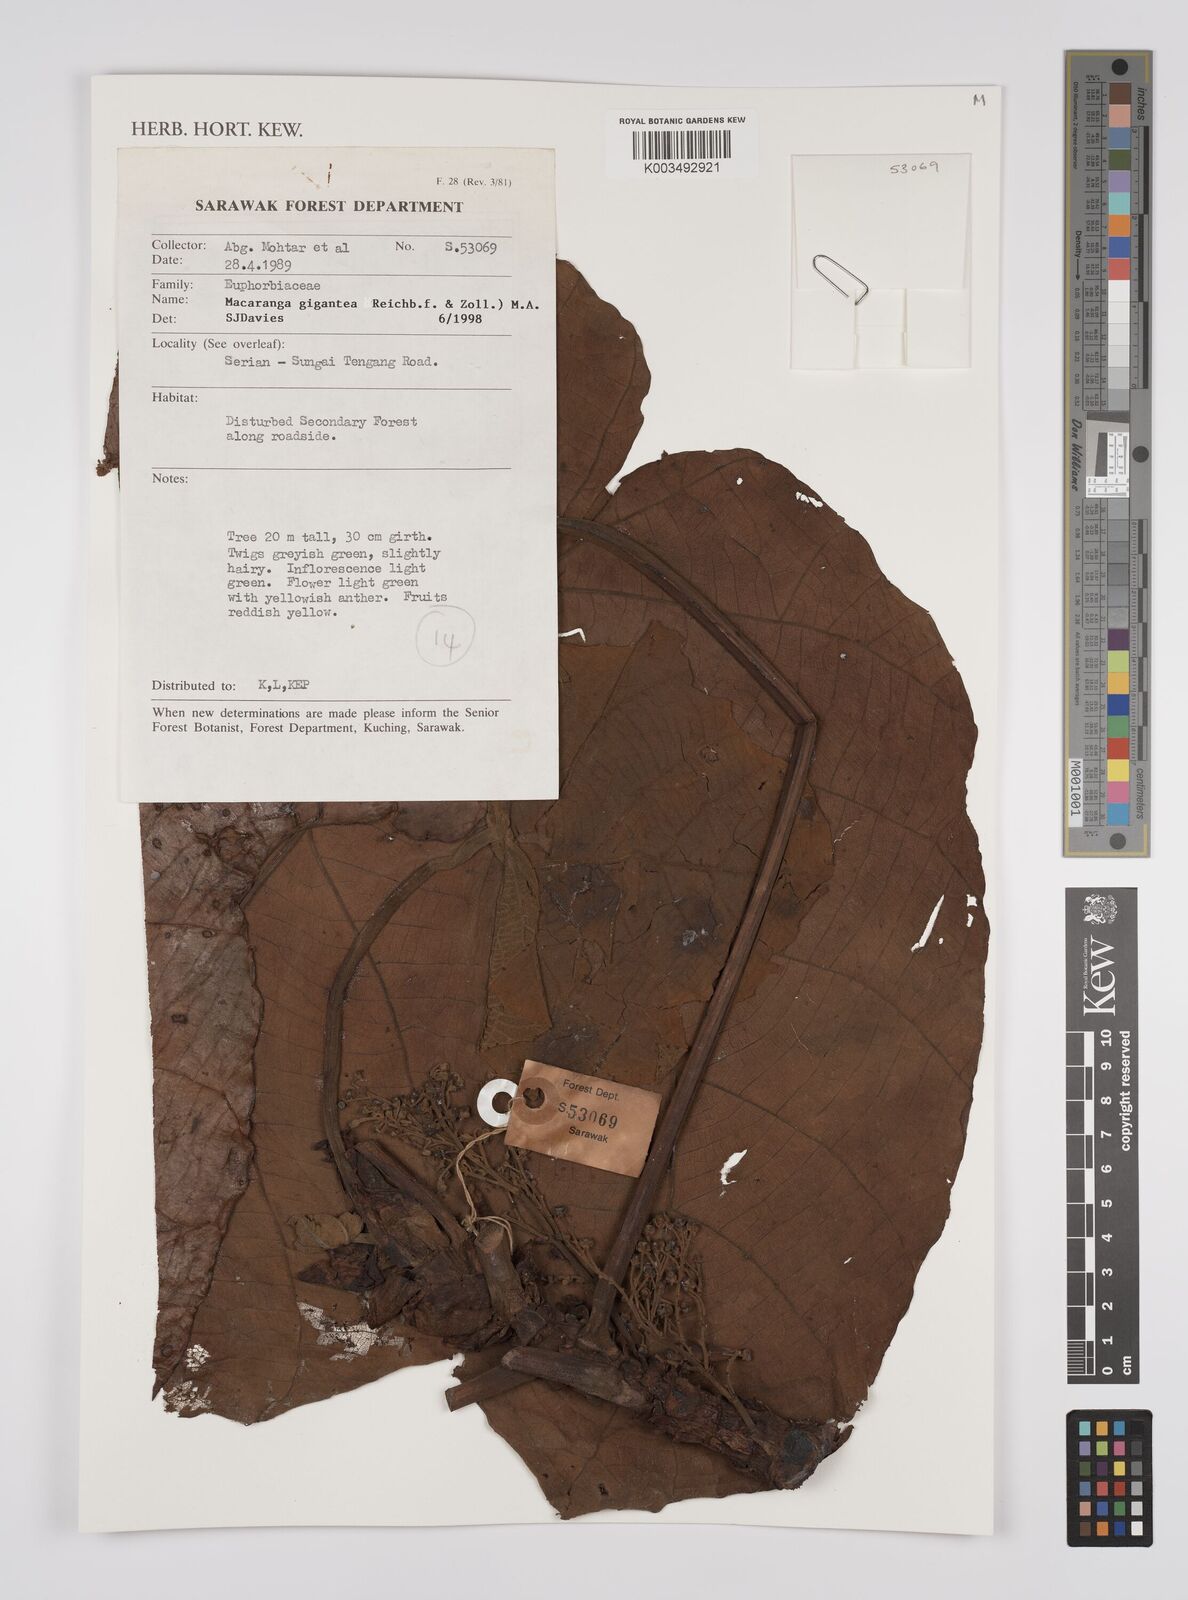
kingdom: Plantae
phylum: Tracheophyta
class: Magnoliopsida
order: Malpighiales
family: Euphorbiaceae
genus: Macaranga
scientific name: Macaranga gigantea
